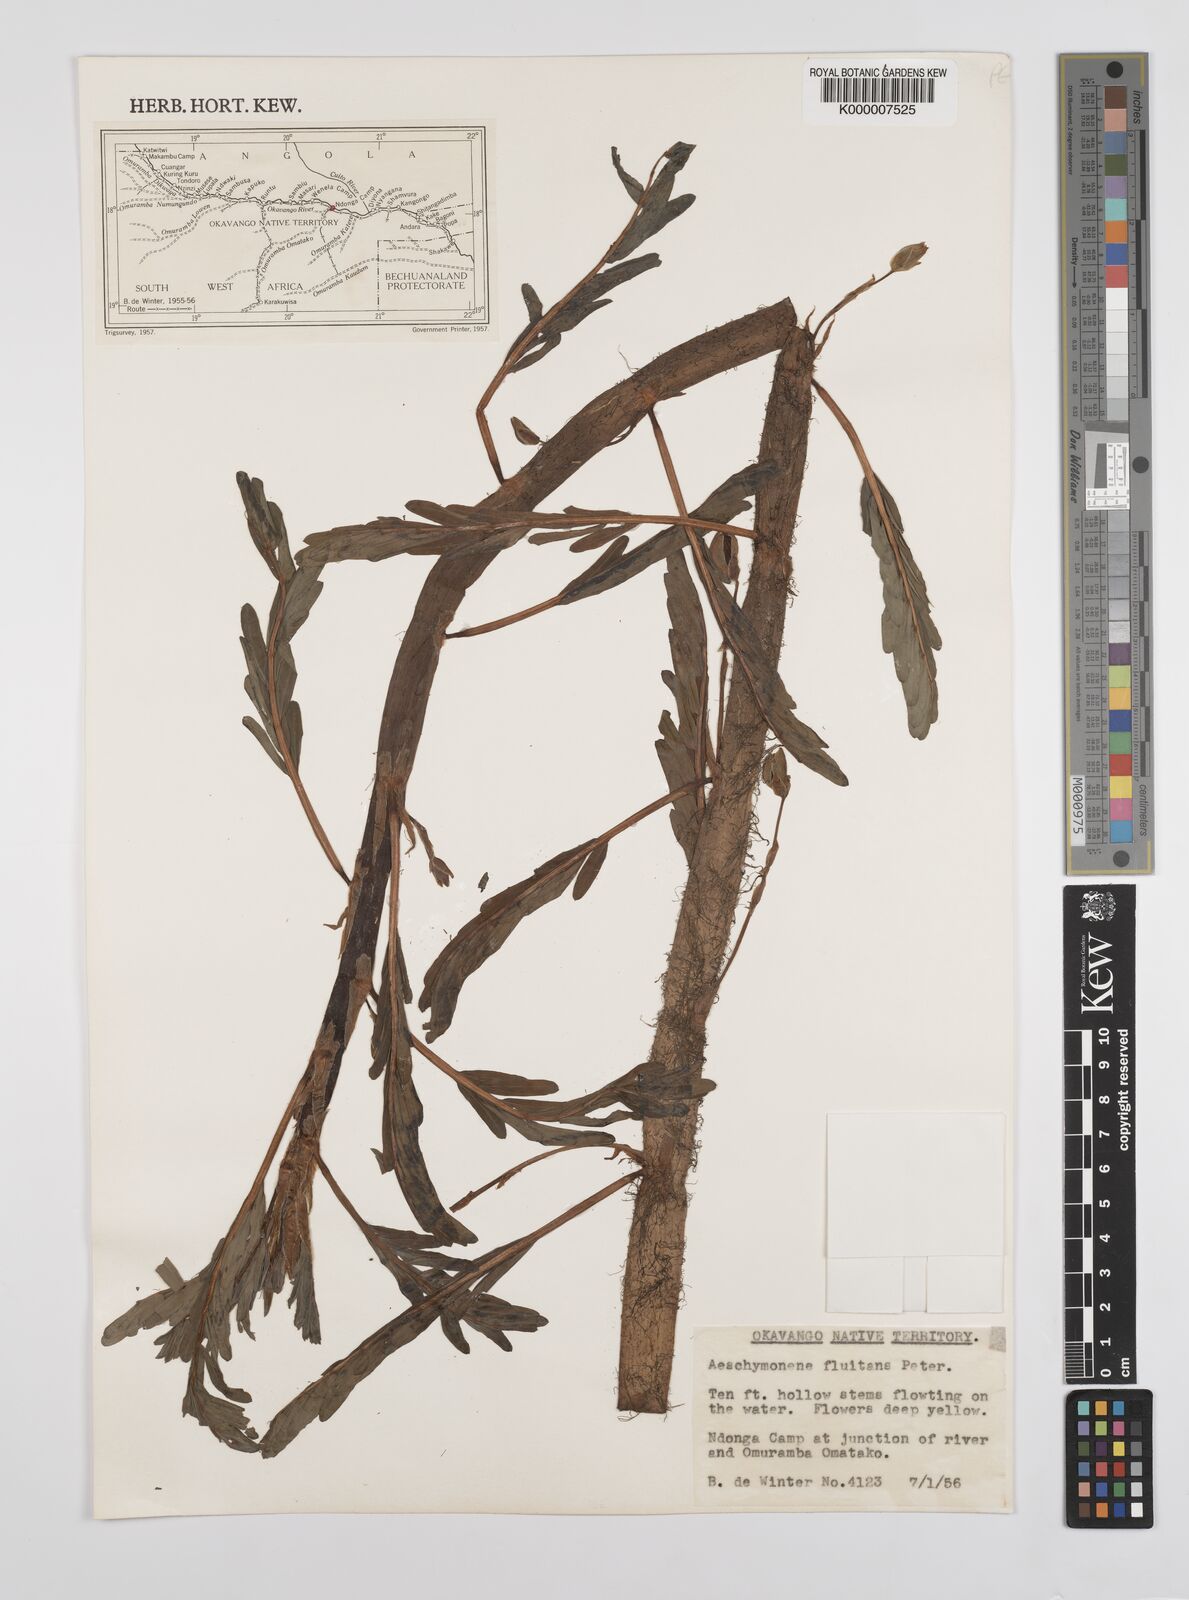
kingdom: Plantae
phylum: Tracheophyta
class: Magnoliopsida
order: Fabales
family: Fabaceae
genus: Aeschynomene
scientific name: Aeschynomene fluitans
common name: Giant water sensitive plant
